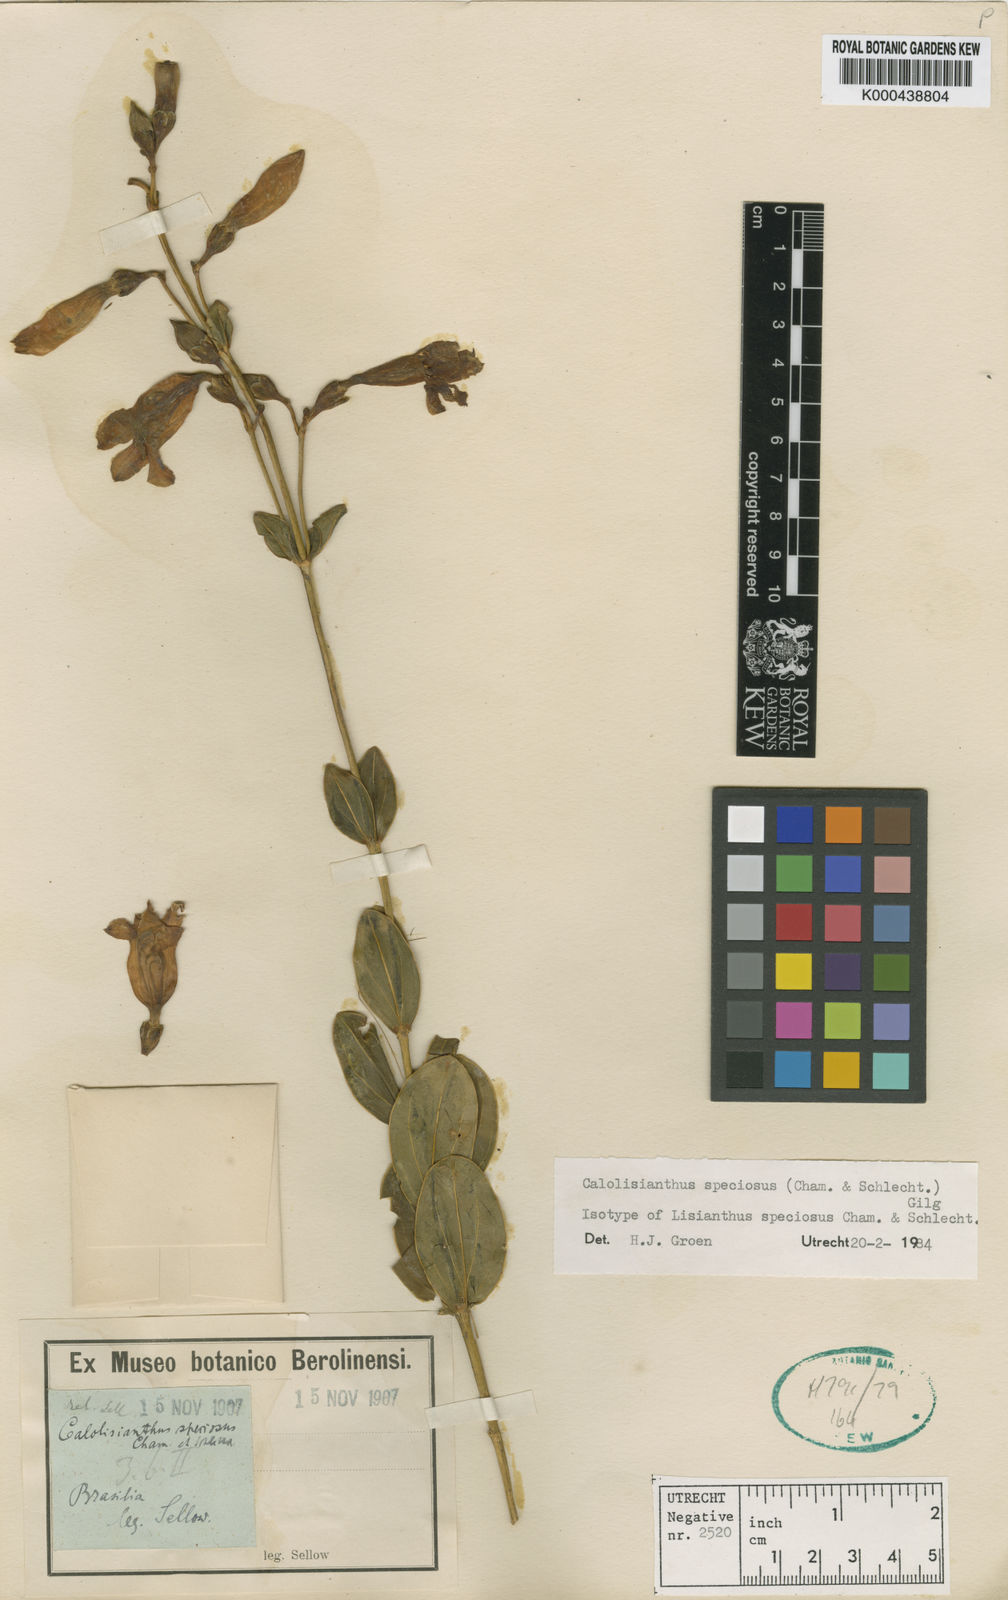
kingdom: Plantae
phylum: Tracheophyta
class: Magnoliopsida
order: Gentianales
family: Gentianaceae
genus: Calolisianthus
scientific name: Calolisianthus speciosus
